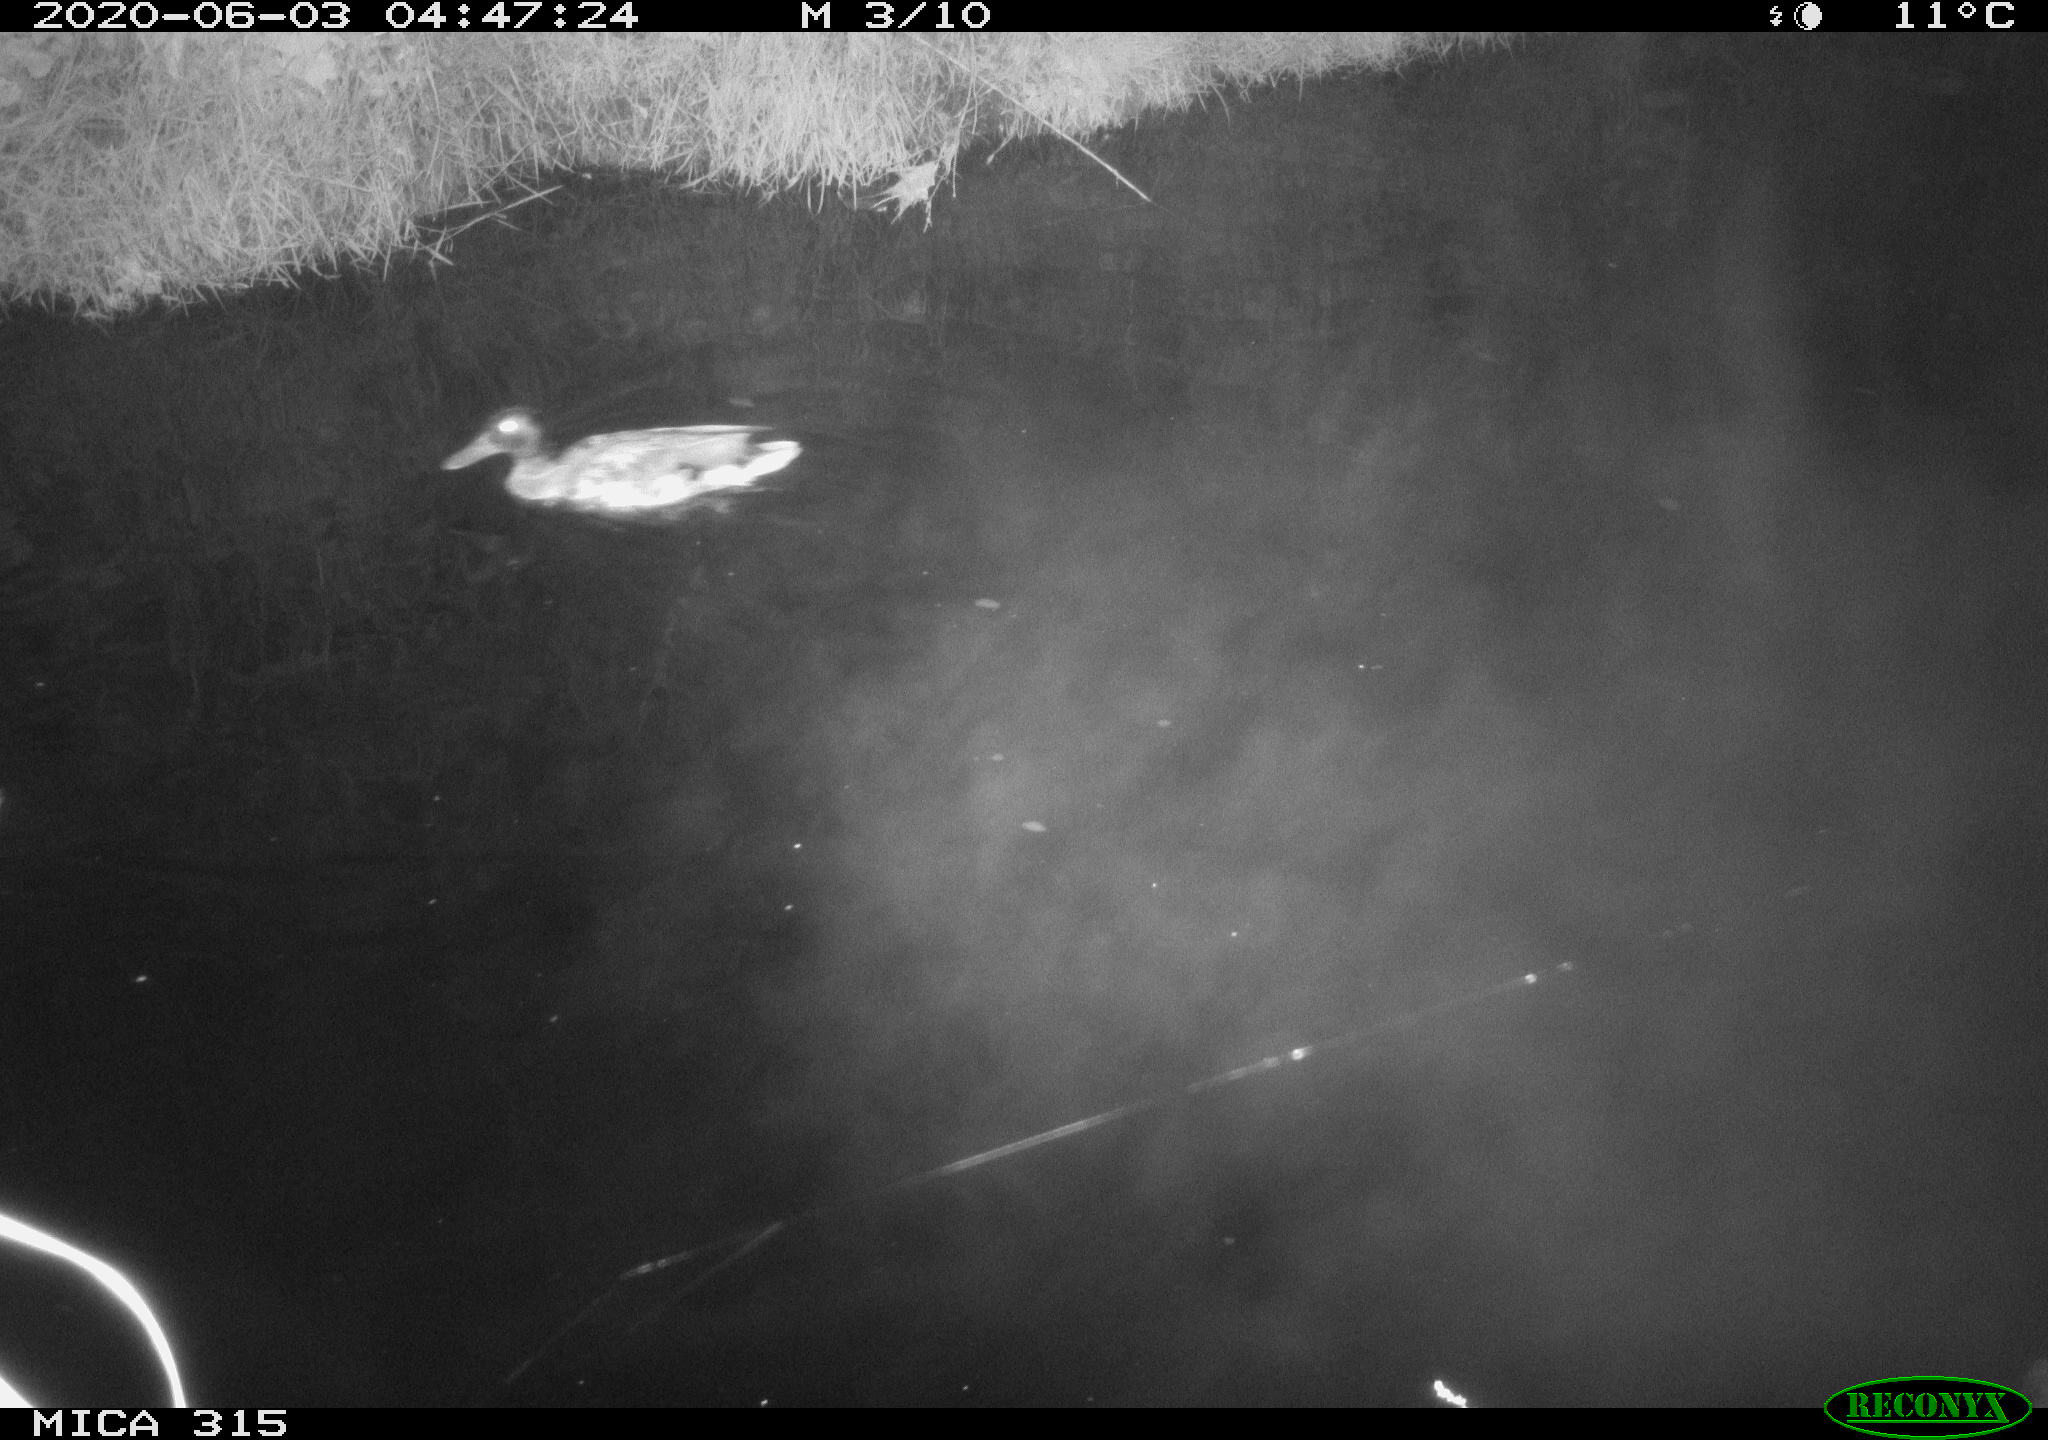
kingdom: Animalia
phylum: Chordata
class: Aves
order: Anseriformes
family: Anatidae
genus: Anas
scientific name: Anas platyrhynchos
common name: Mallard
